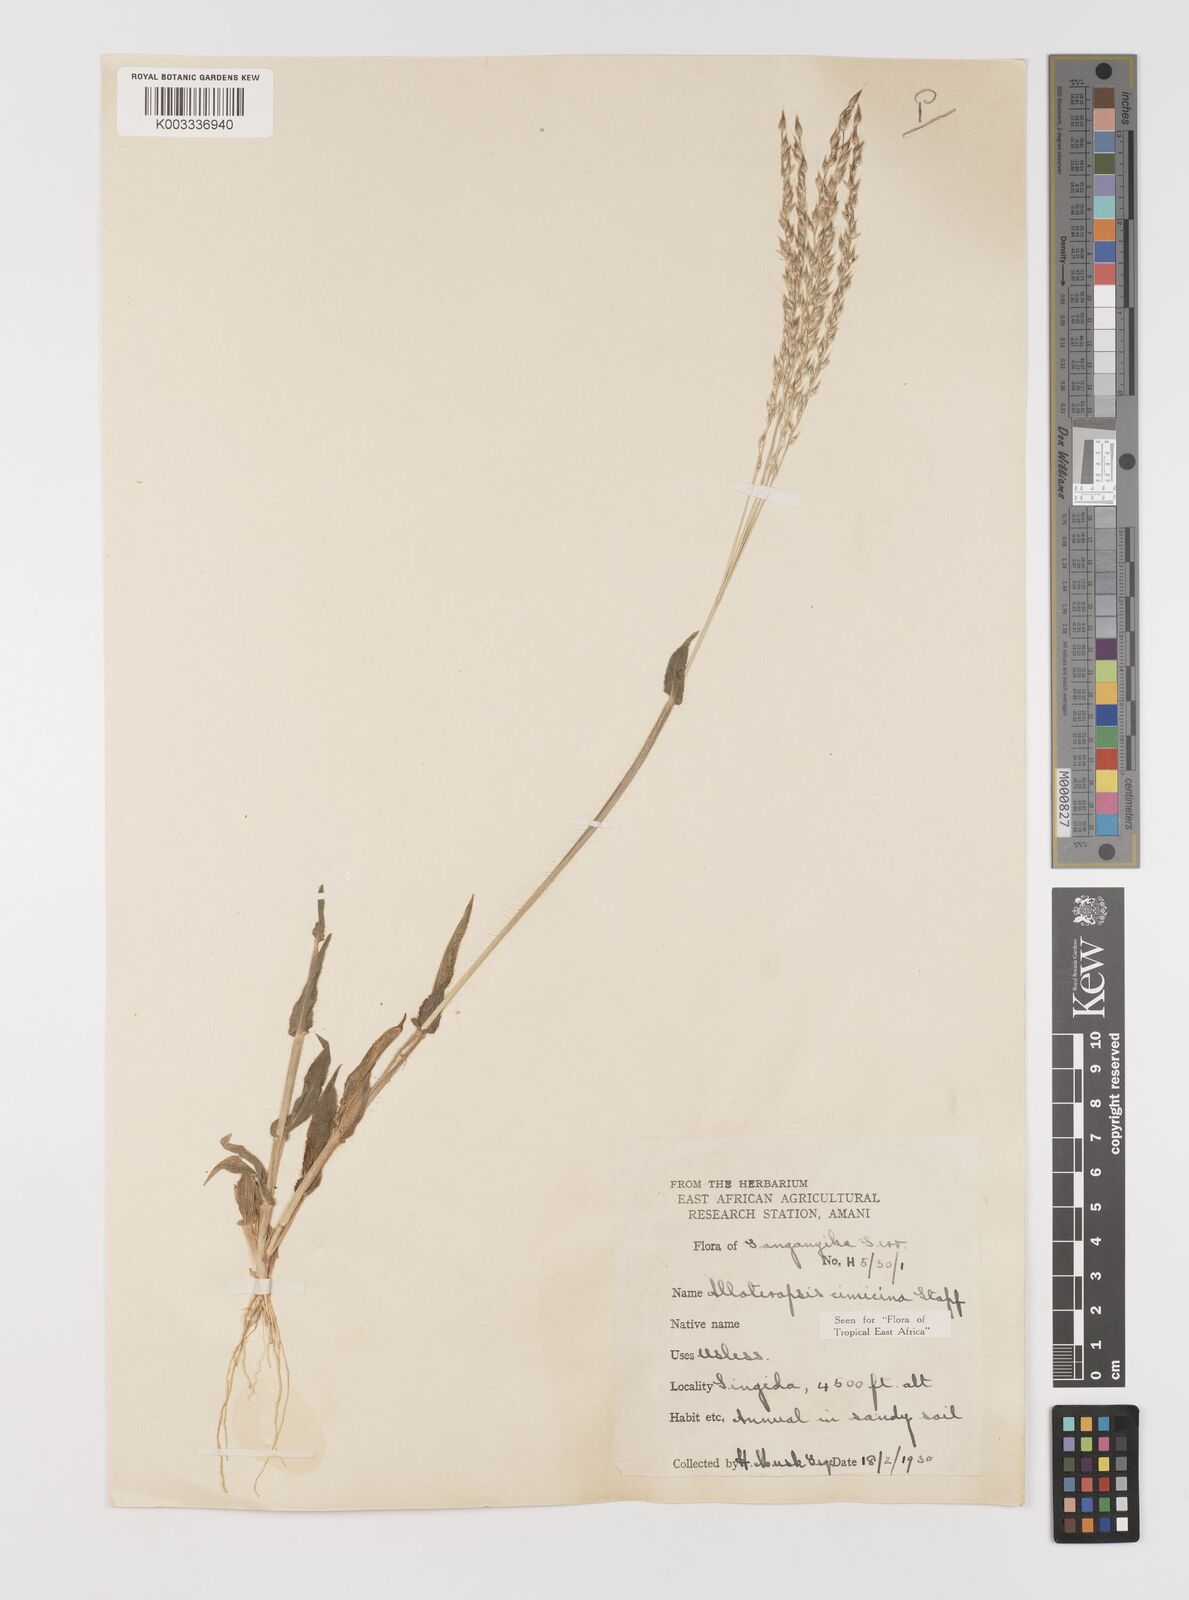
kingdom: Plantae
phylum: Tracheophyta
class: Liliopsida
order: Poales
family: Poaceae
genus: Alloteropsis
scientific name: Alloteropsis cimicina
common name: Summergrass
